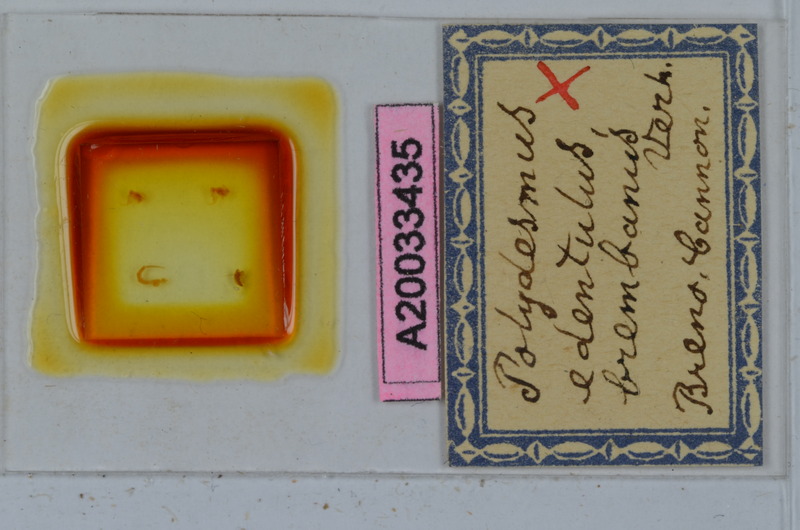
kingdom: Animalia
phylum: Arthropoda
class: Diplopoda
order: Polydesmida
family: Polydesmidae
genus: Polydesmus
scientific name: Polydesmus edentulus
